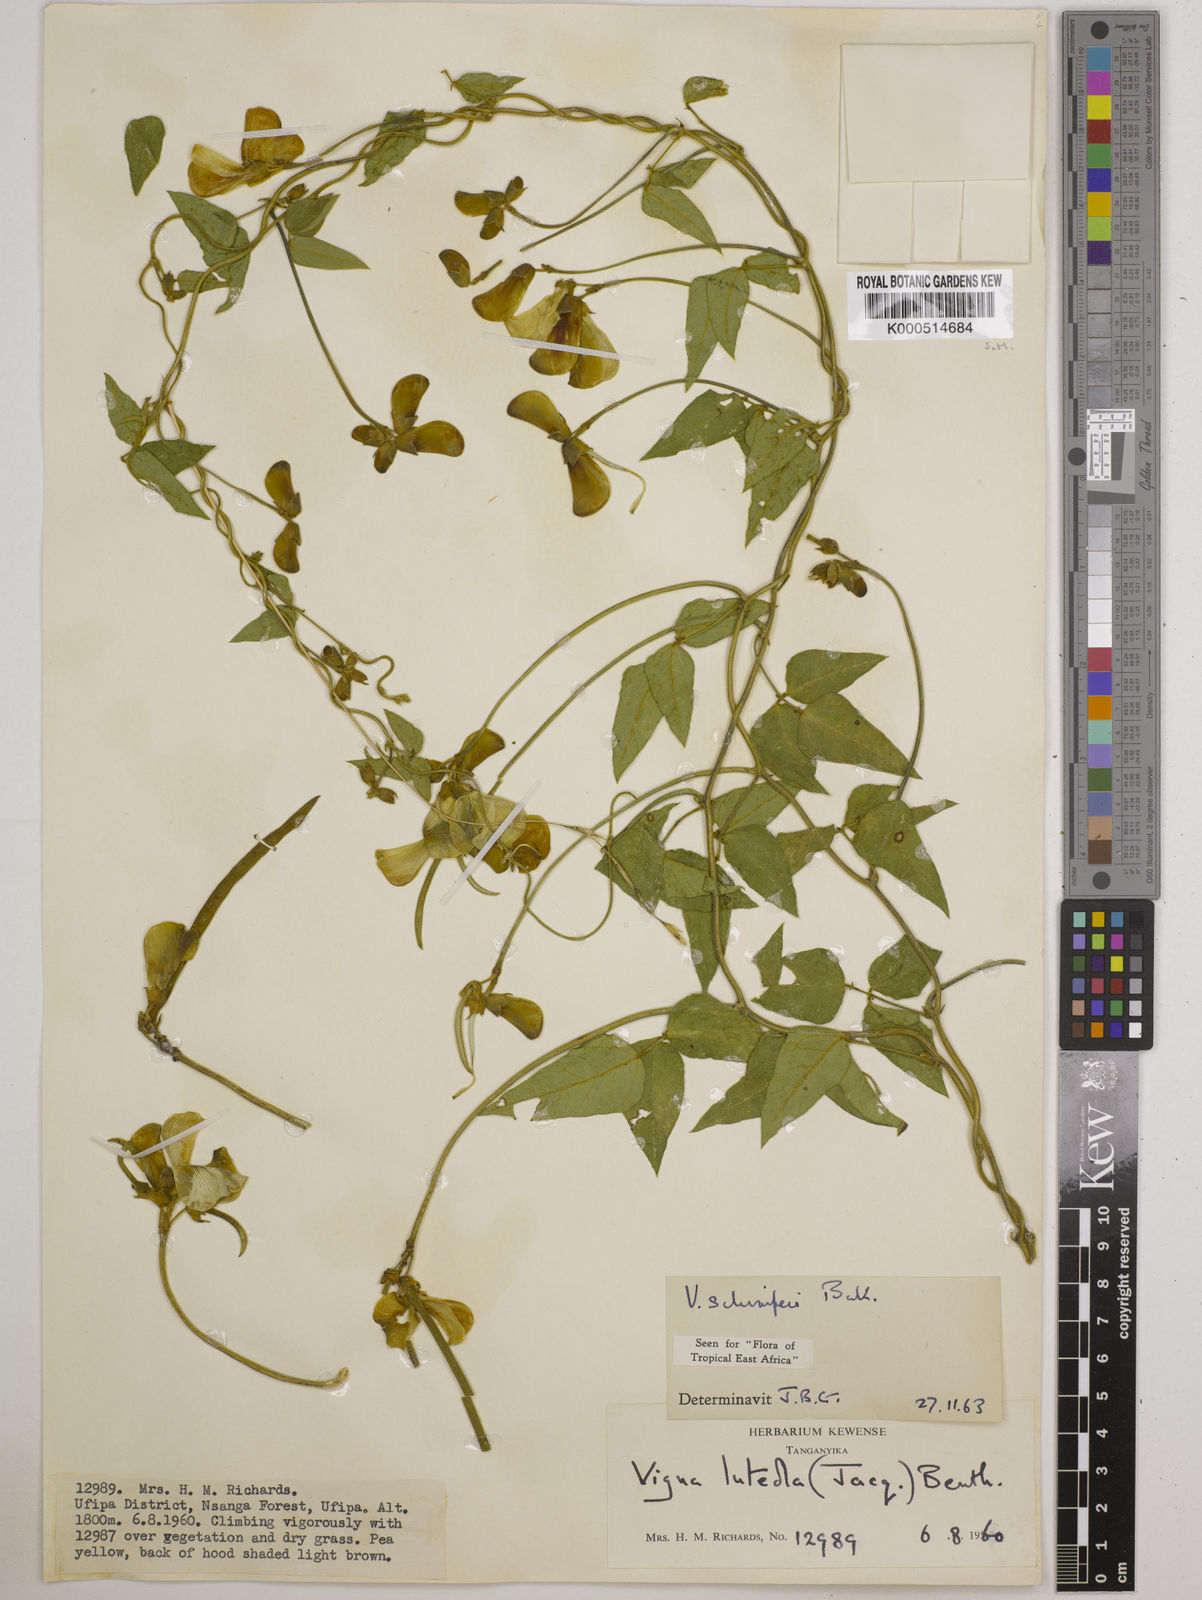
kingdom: Plantae
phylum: Tracheophyta
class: Magnoliopsida
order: Fabales
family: Fabaceae
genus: Vigna
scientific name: Vigna schimperi
